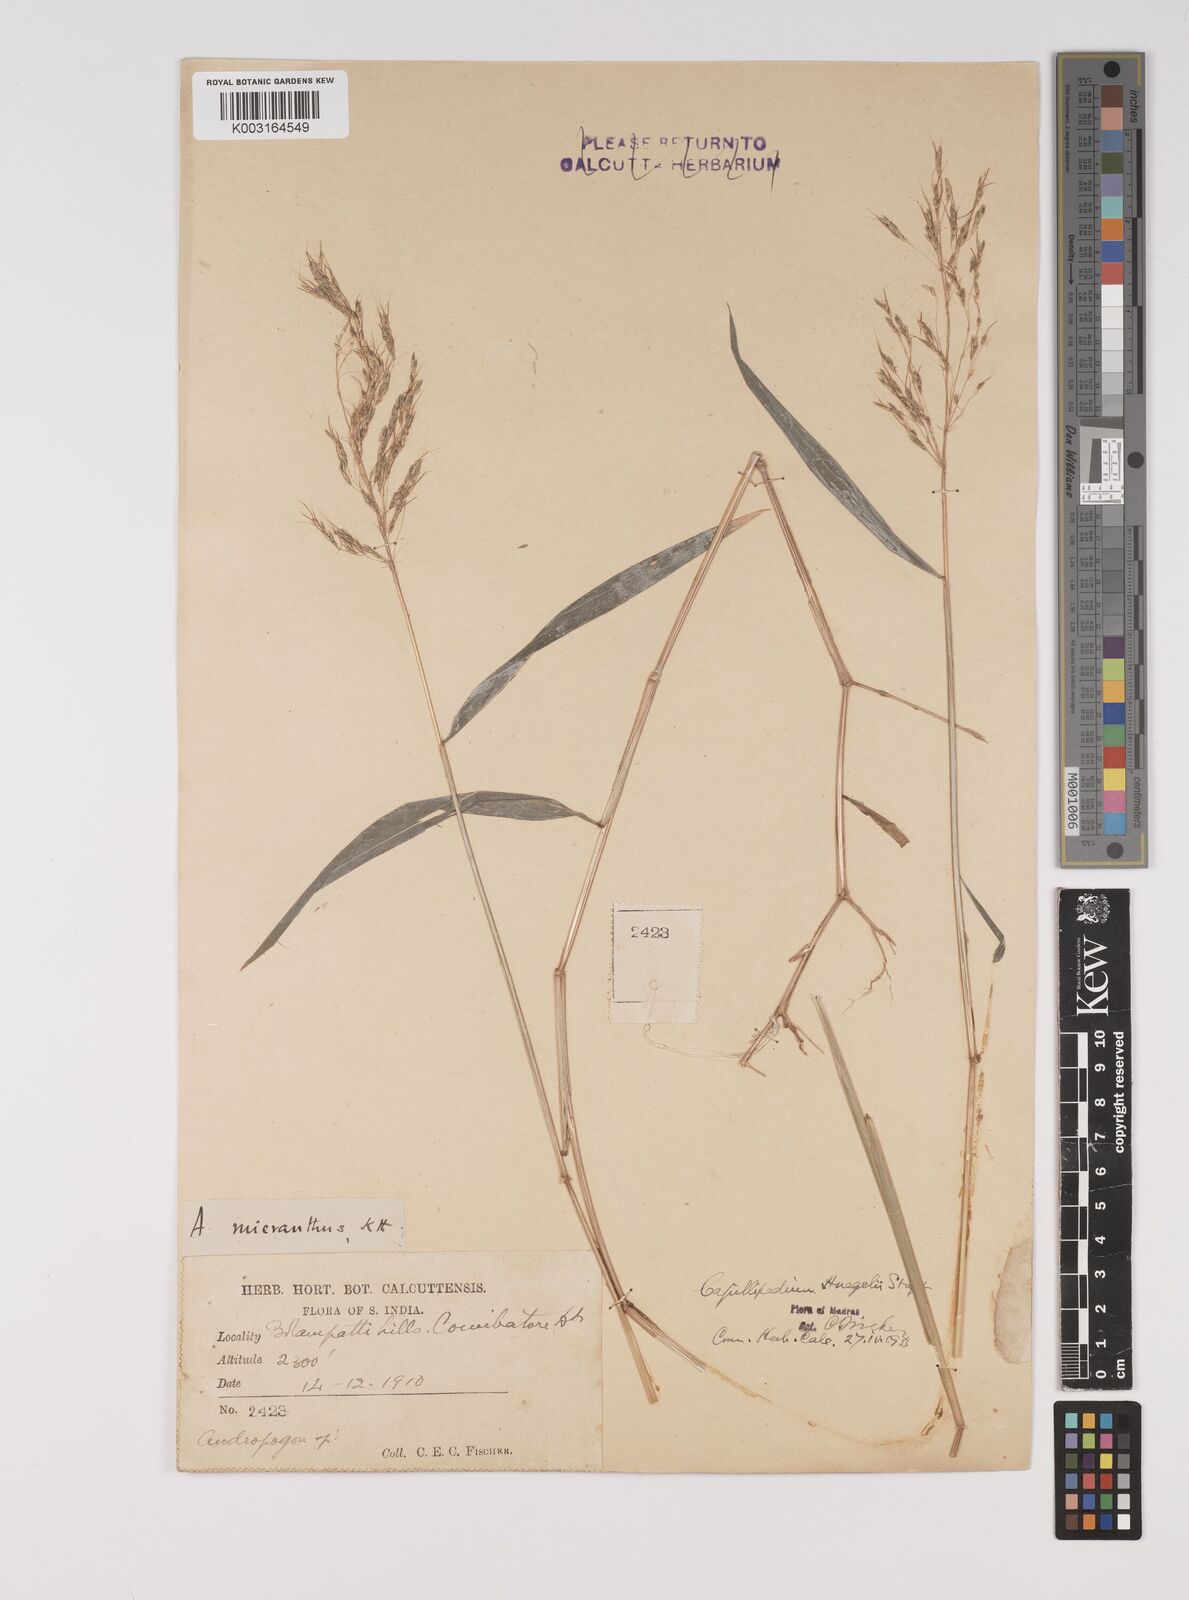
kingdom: Plantae
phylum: Tracheophyta
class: Liliopsida
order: Poales
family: Poaceae
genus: Capillipedium
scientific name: Capillipedium huegelii
